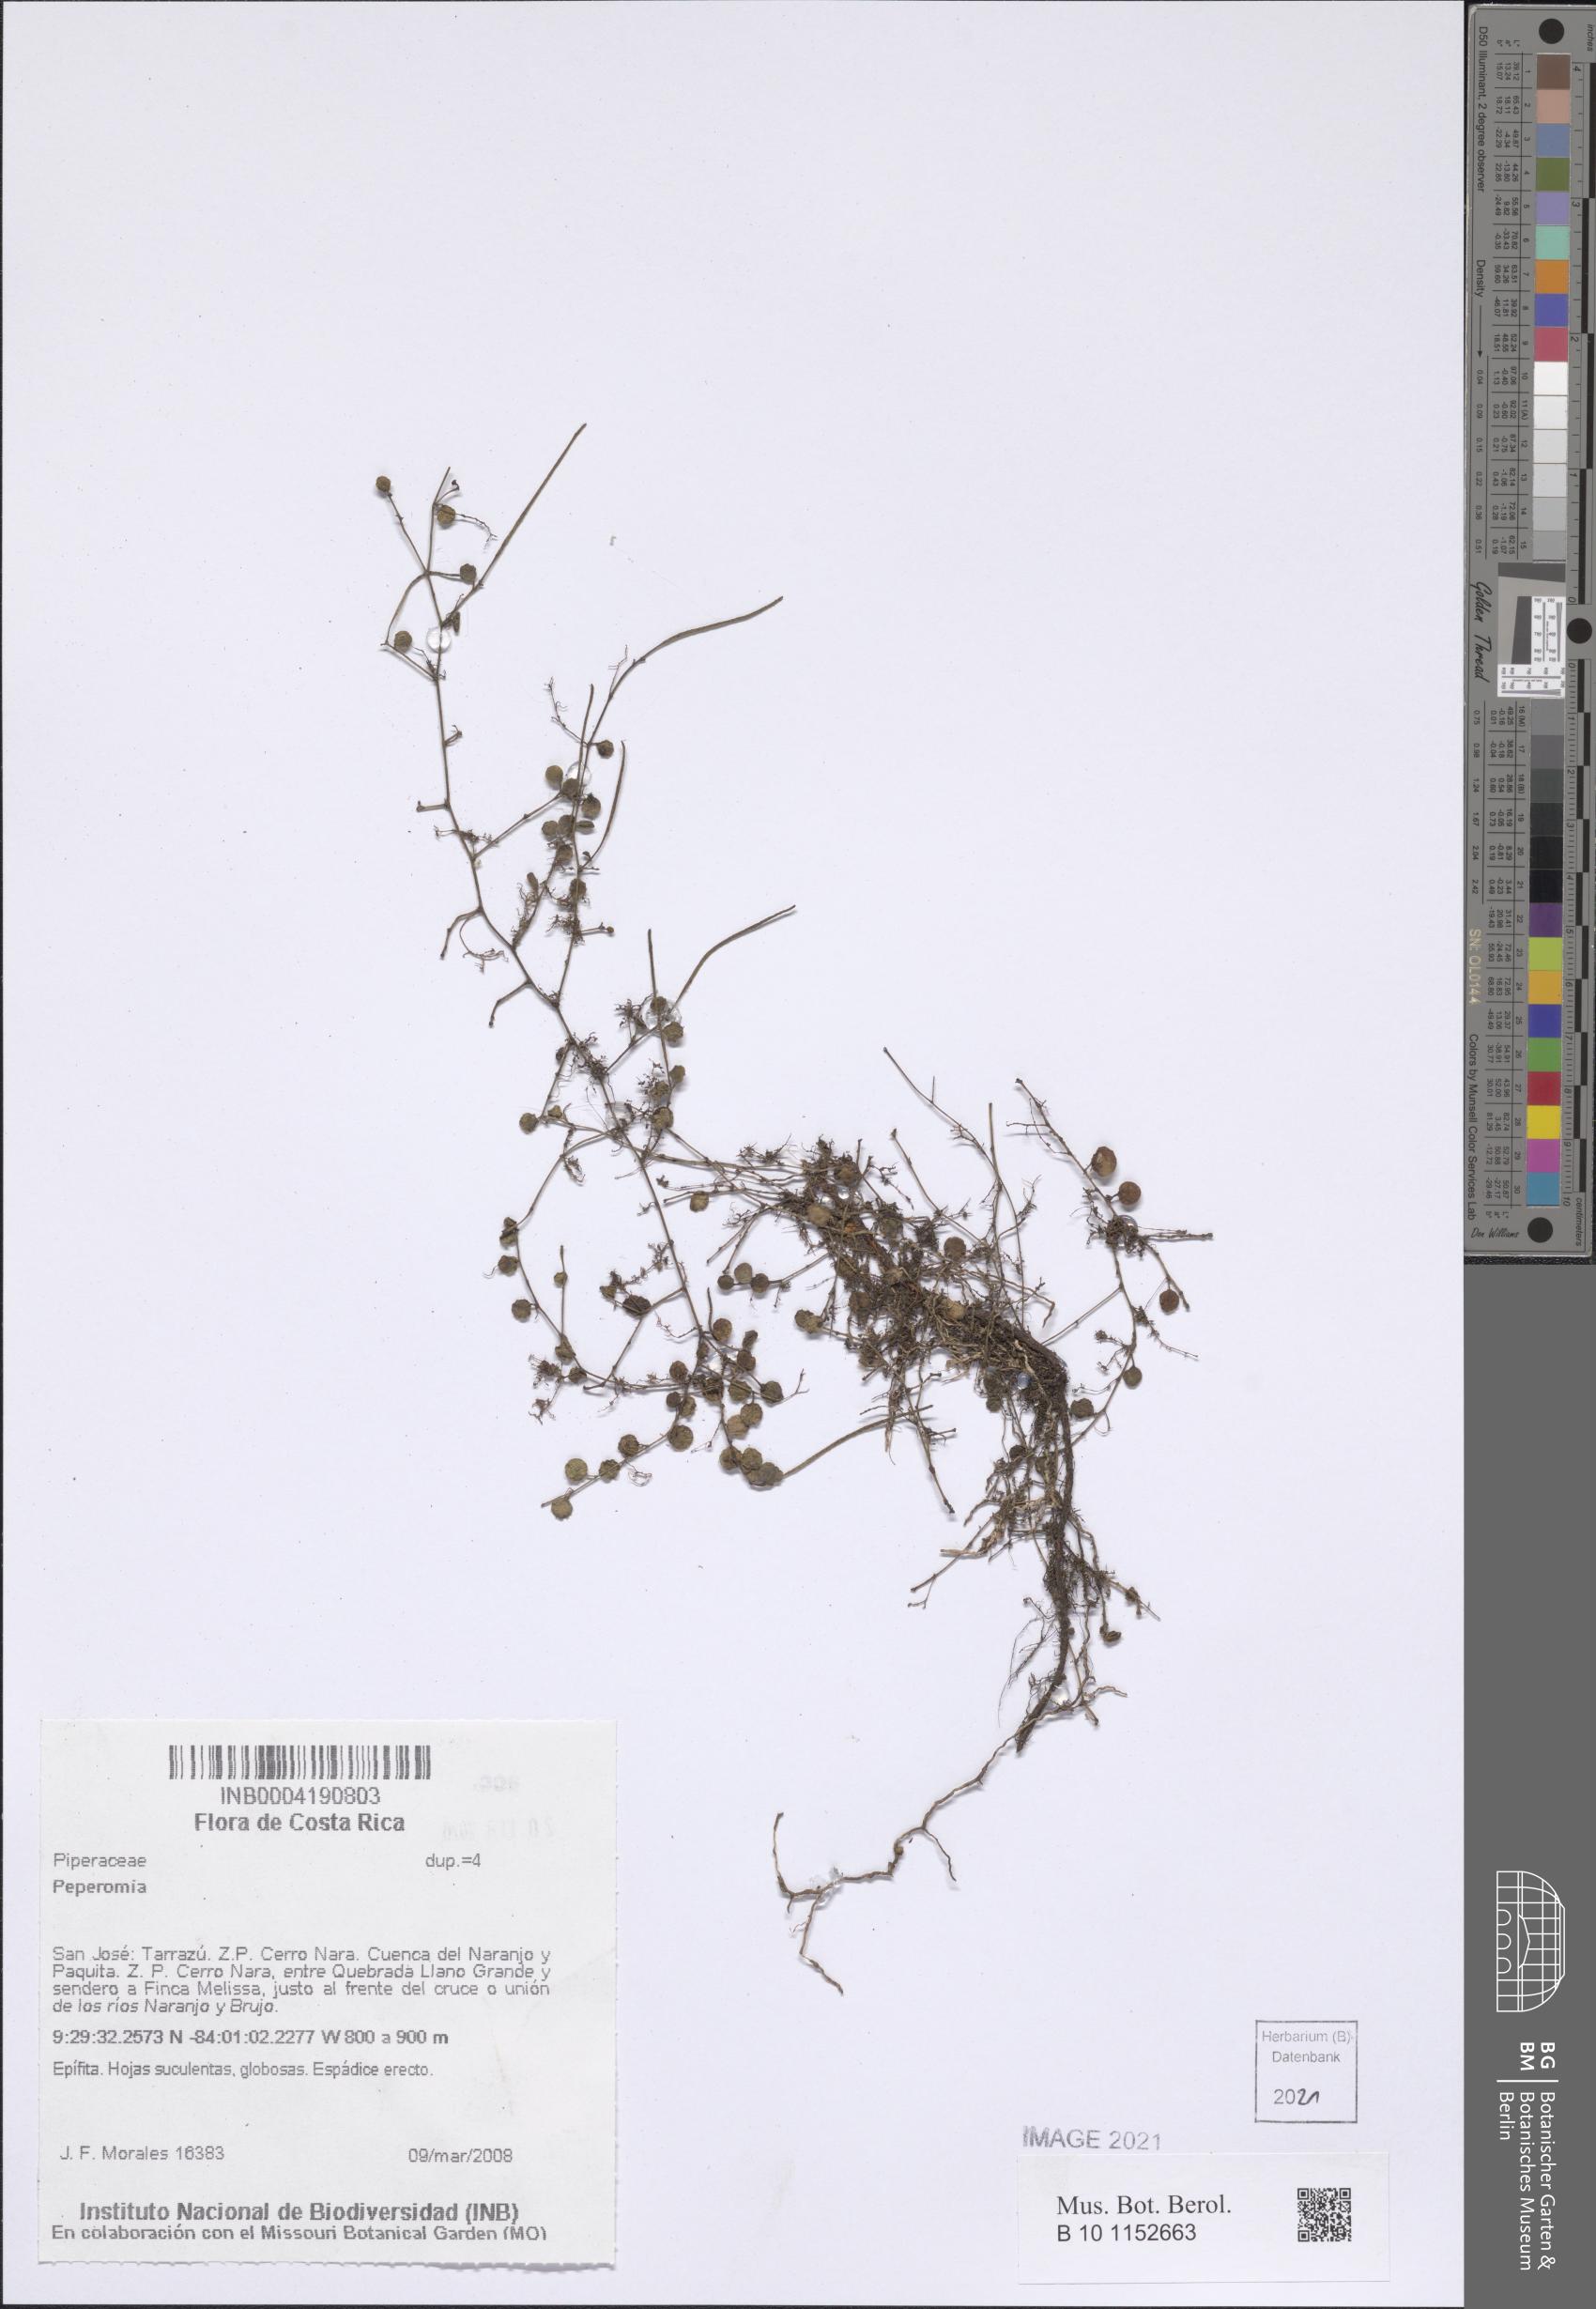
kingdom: Plantae
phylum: Tracheophyta
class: Magnoliopsida
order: Piperales
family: Piperaceae
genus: Peperomia
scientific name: Peperomia
